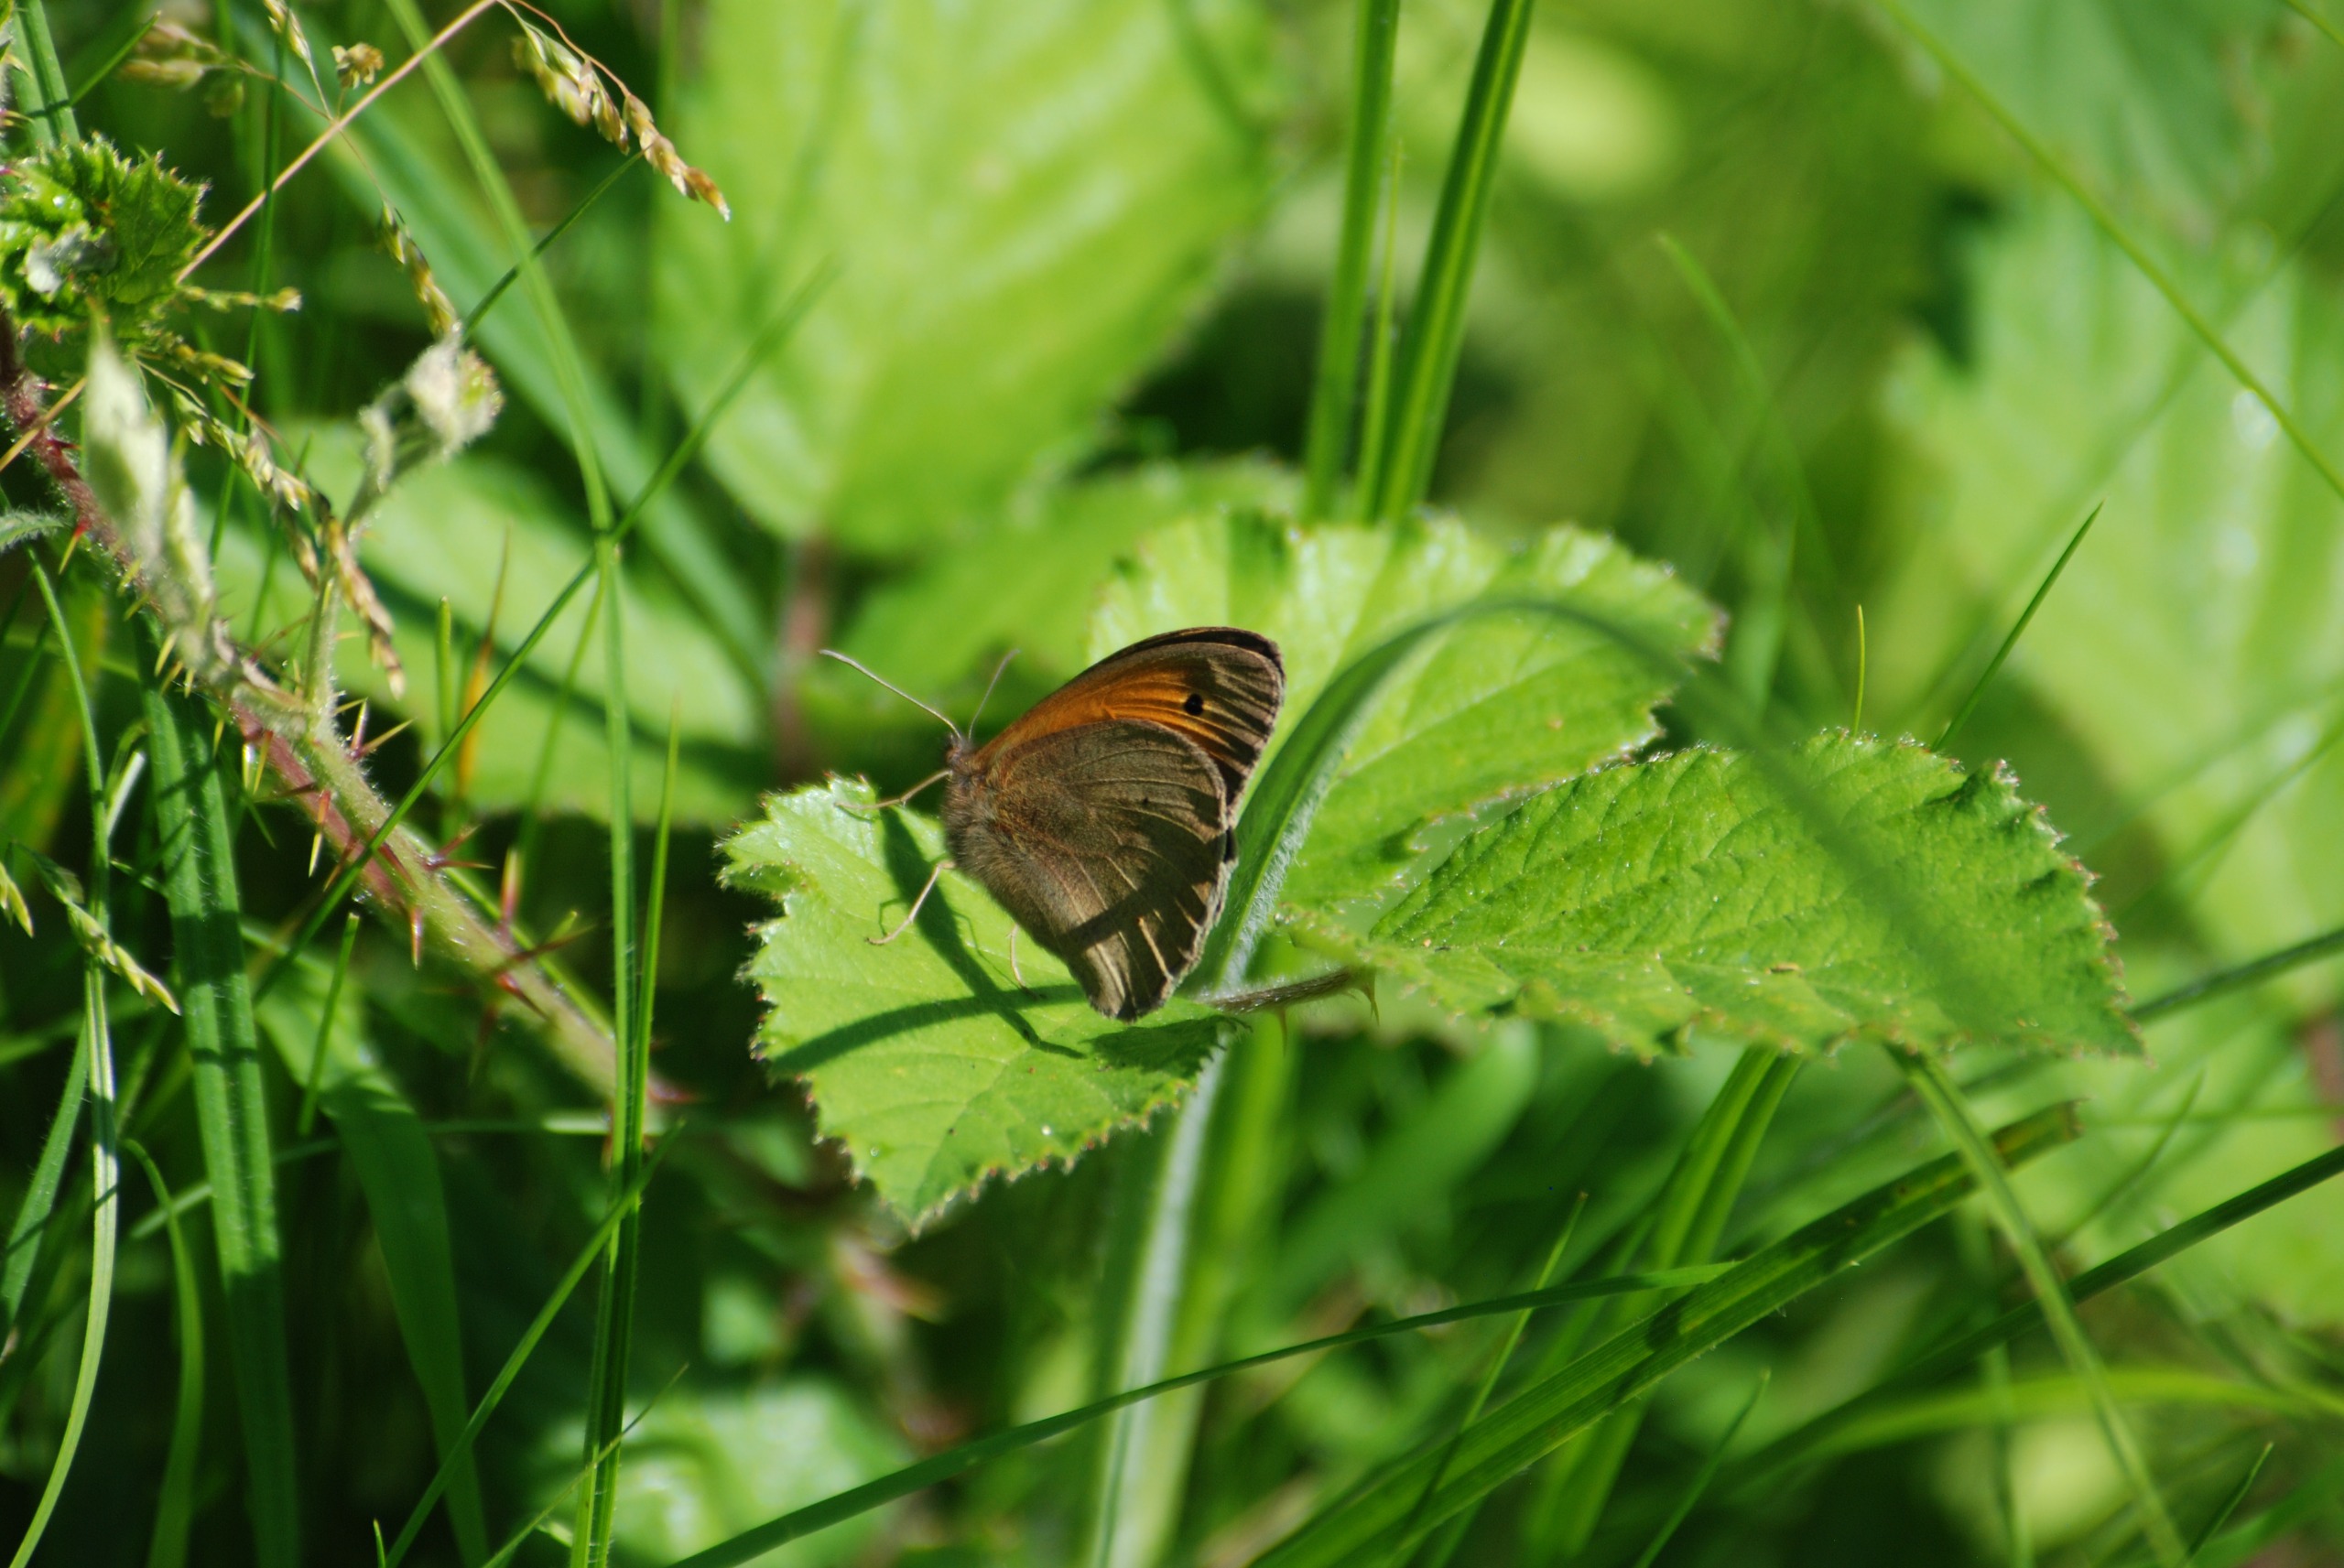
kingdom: Animalia
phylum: Arthropoda
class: Insecta
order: Lepidoptera
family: Nymphalidae
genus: Maniola
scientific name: Maniola jurtina
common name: Græsrandøje
